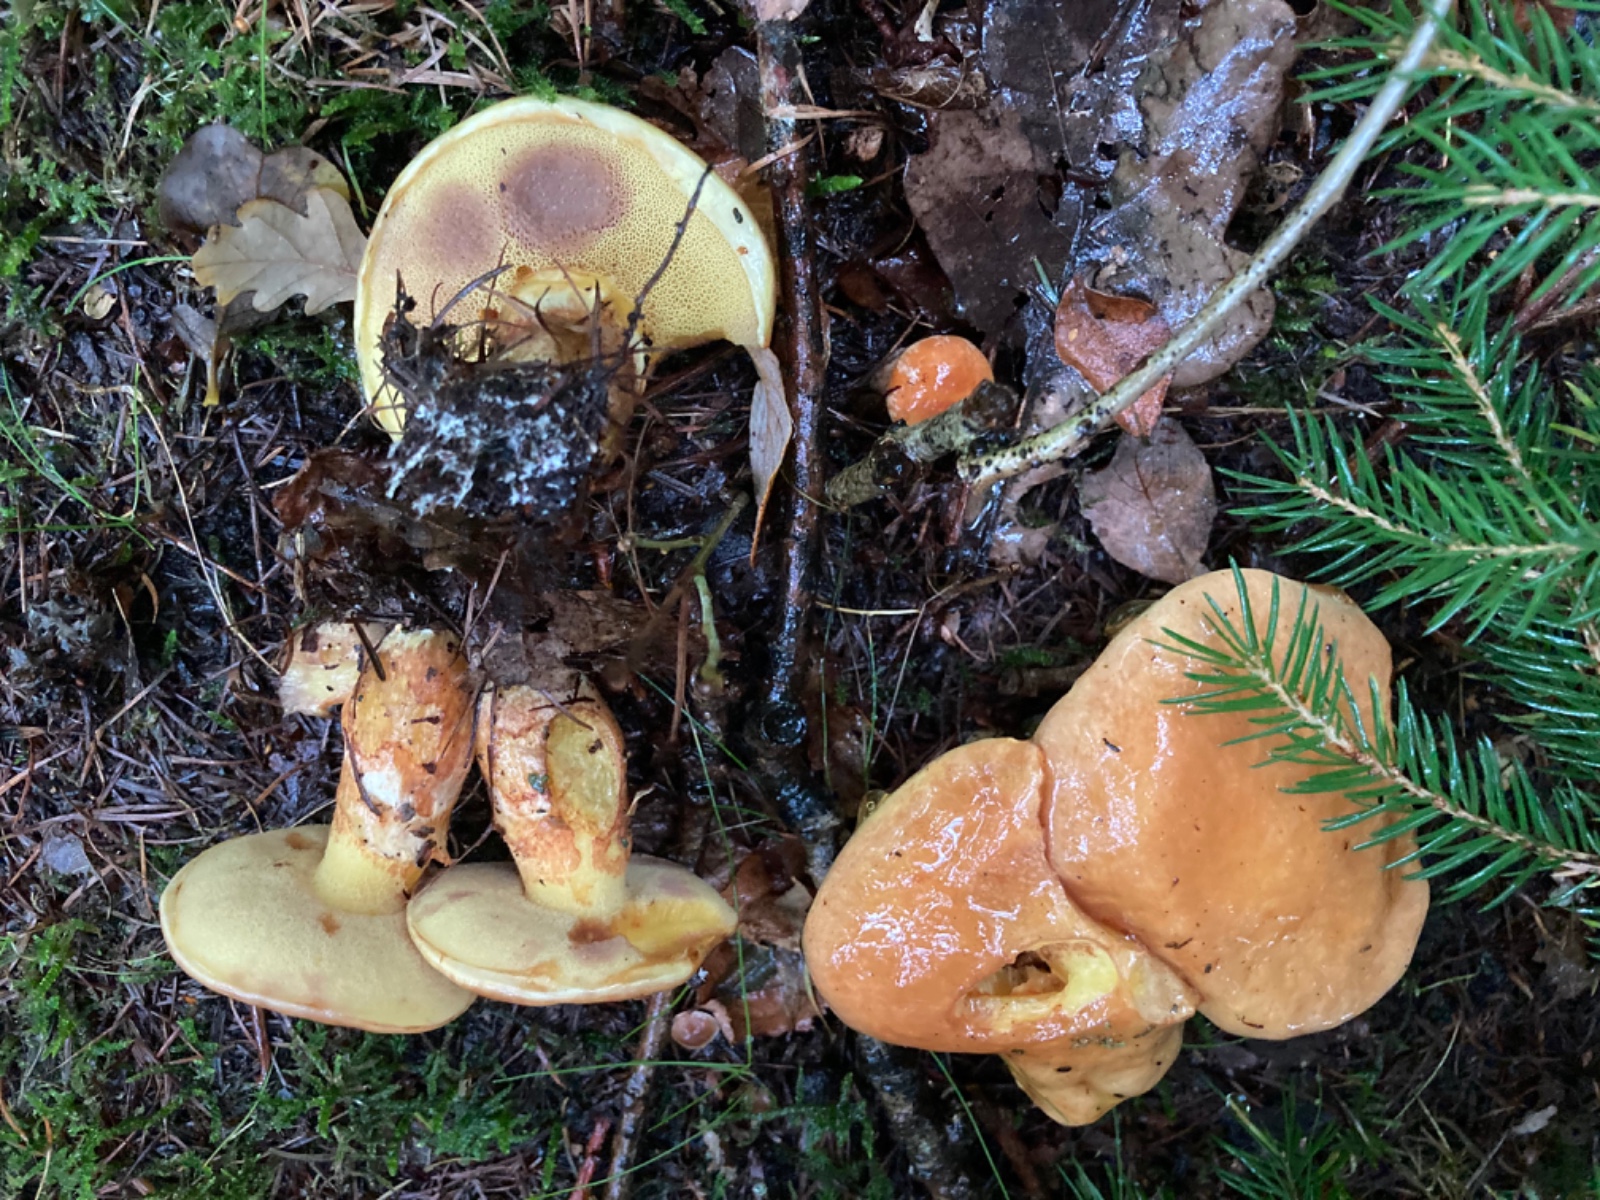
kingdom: Fungi
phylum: Basidiomycota
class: Agaricomycetes
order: Boletales
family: Suillaceae
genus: Suillus
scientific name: Suillus grevillei
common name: lærke-slimrørhat
